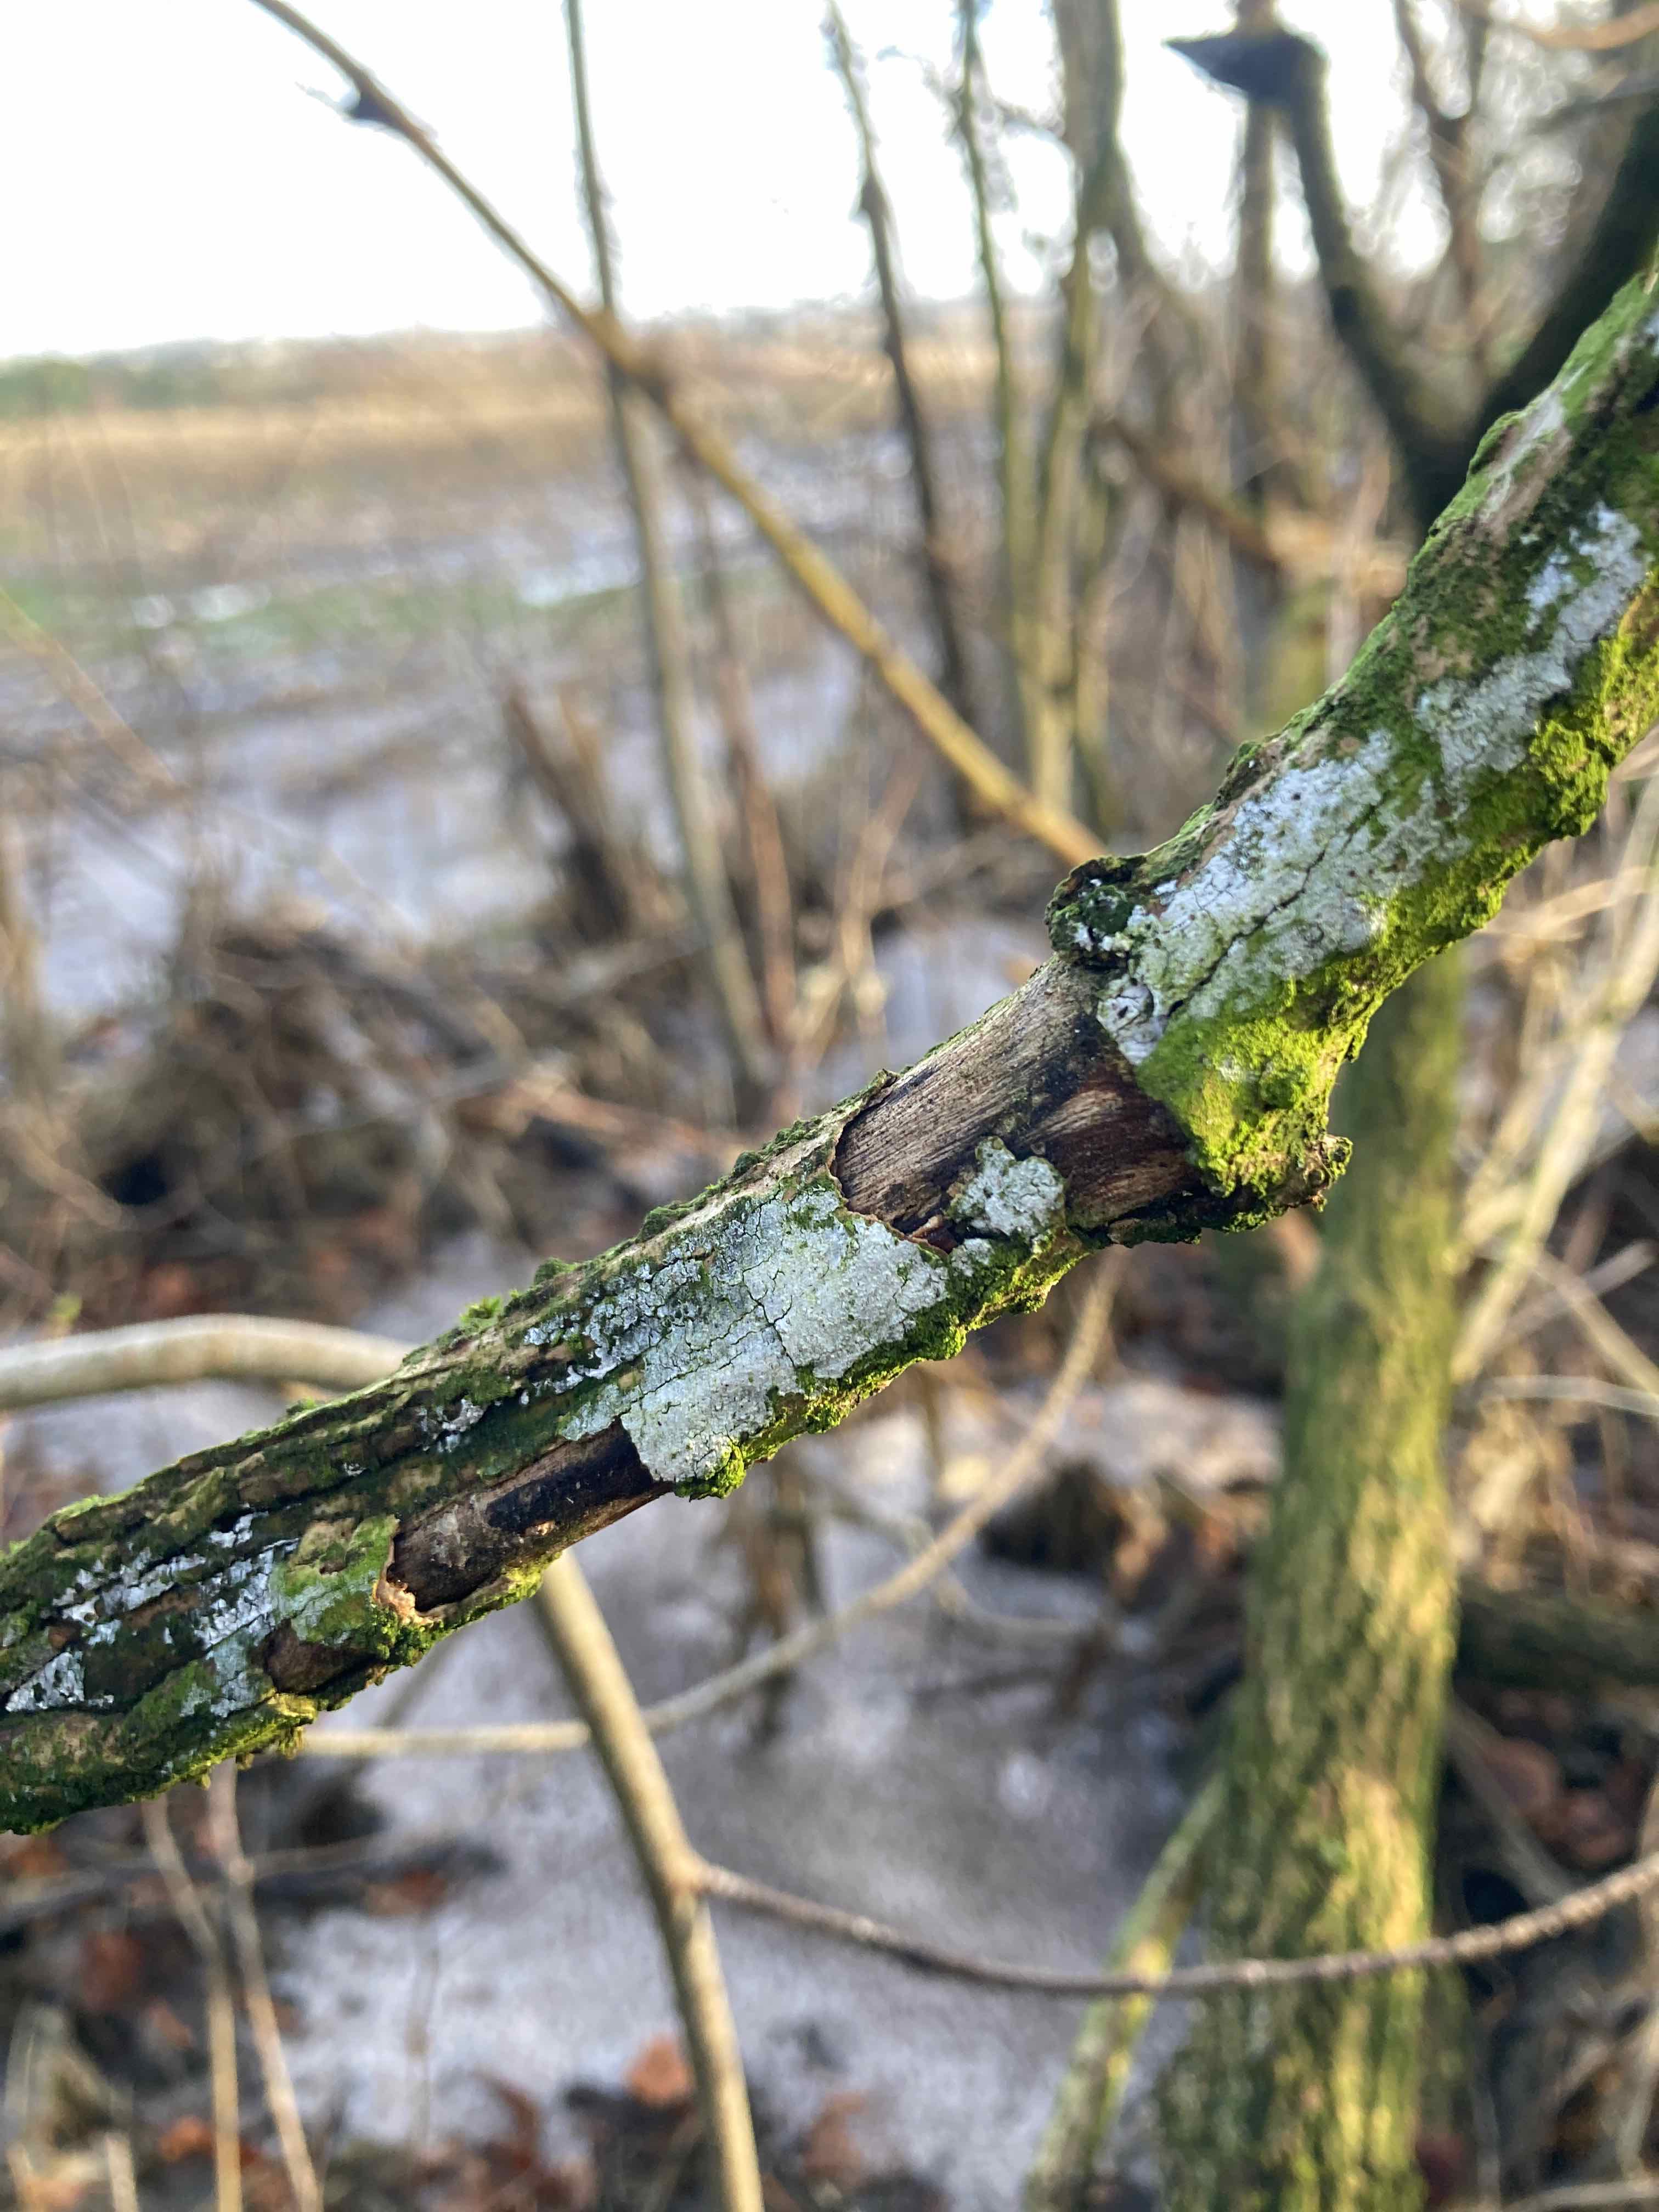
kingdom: Fungi
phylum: Basidiomycota
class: Agaricomycetes
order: Corticiales
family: Corticiaceae
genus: Lyomyces
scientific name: Lyomyces sambuci
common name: almindelig hyldehinde
